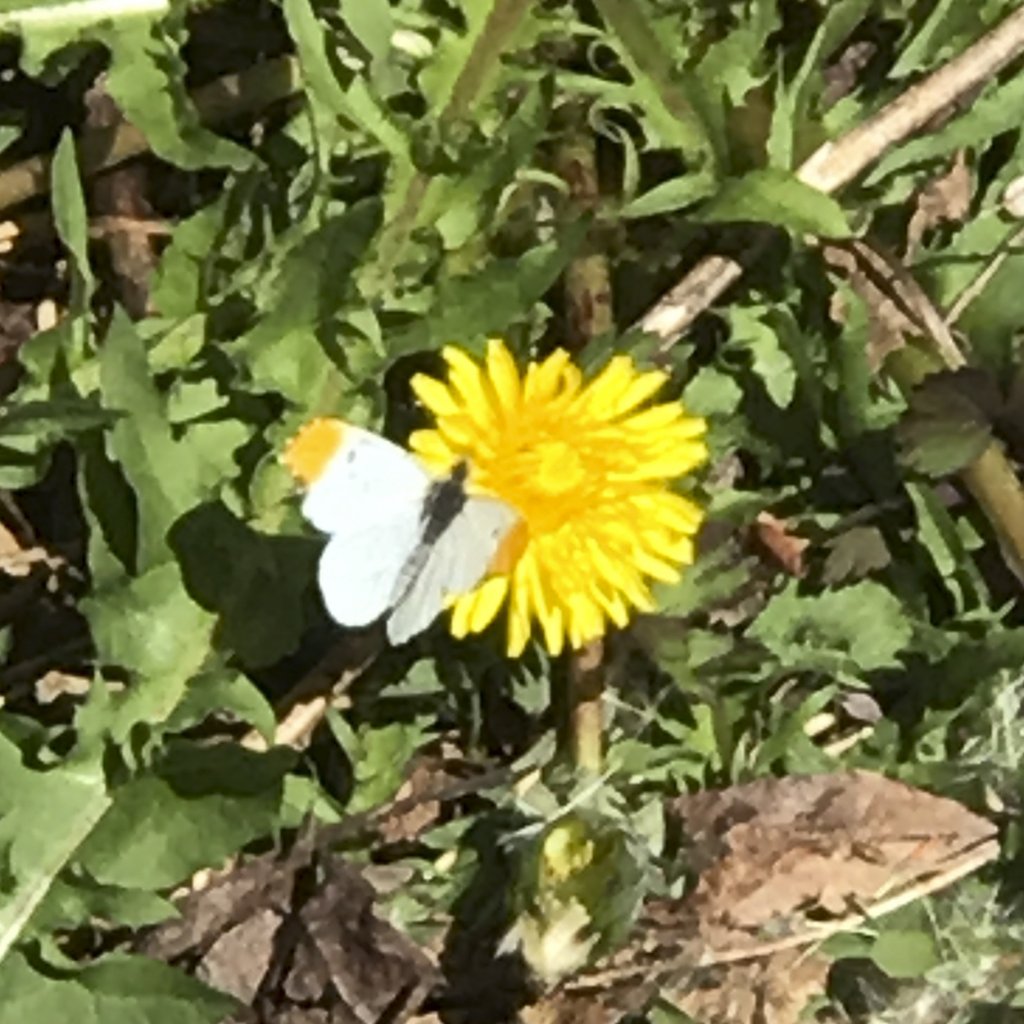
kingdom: Animalia
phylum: Arthropoda
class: Insecta
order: Lepidoptera
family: Pieridae
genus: Anthocharis
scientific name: Anthocharis midea
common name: Falcate Orangetip
